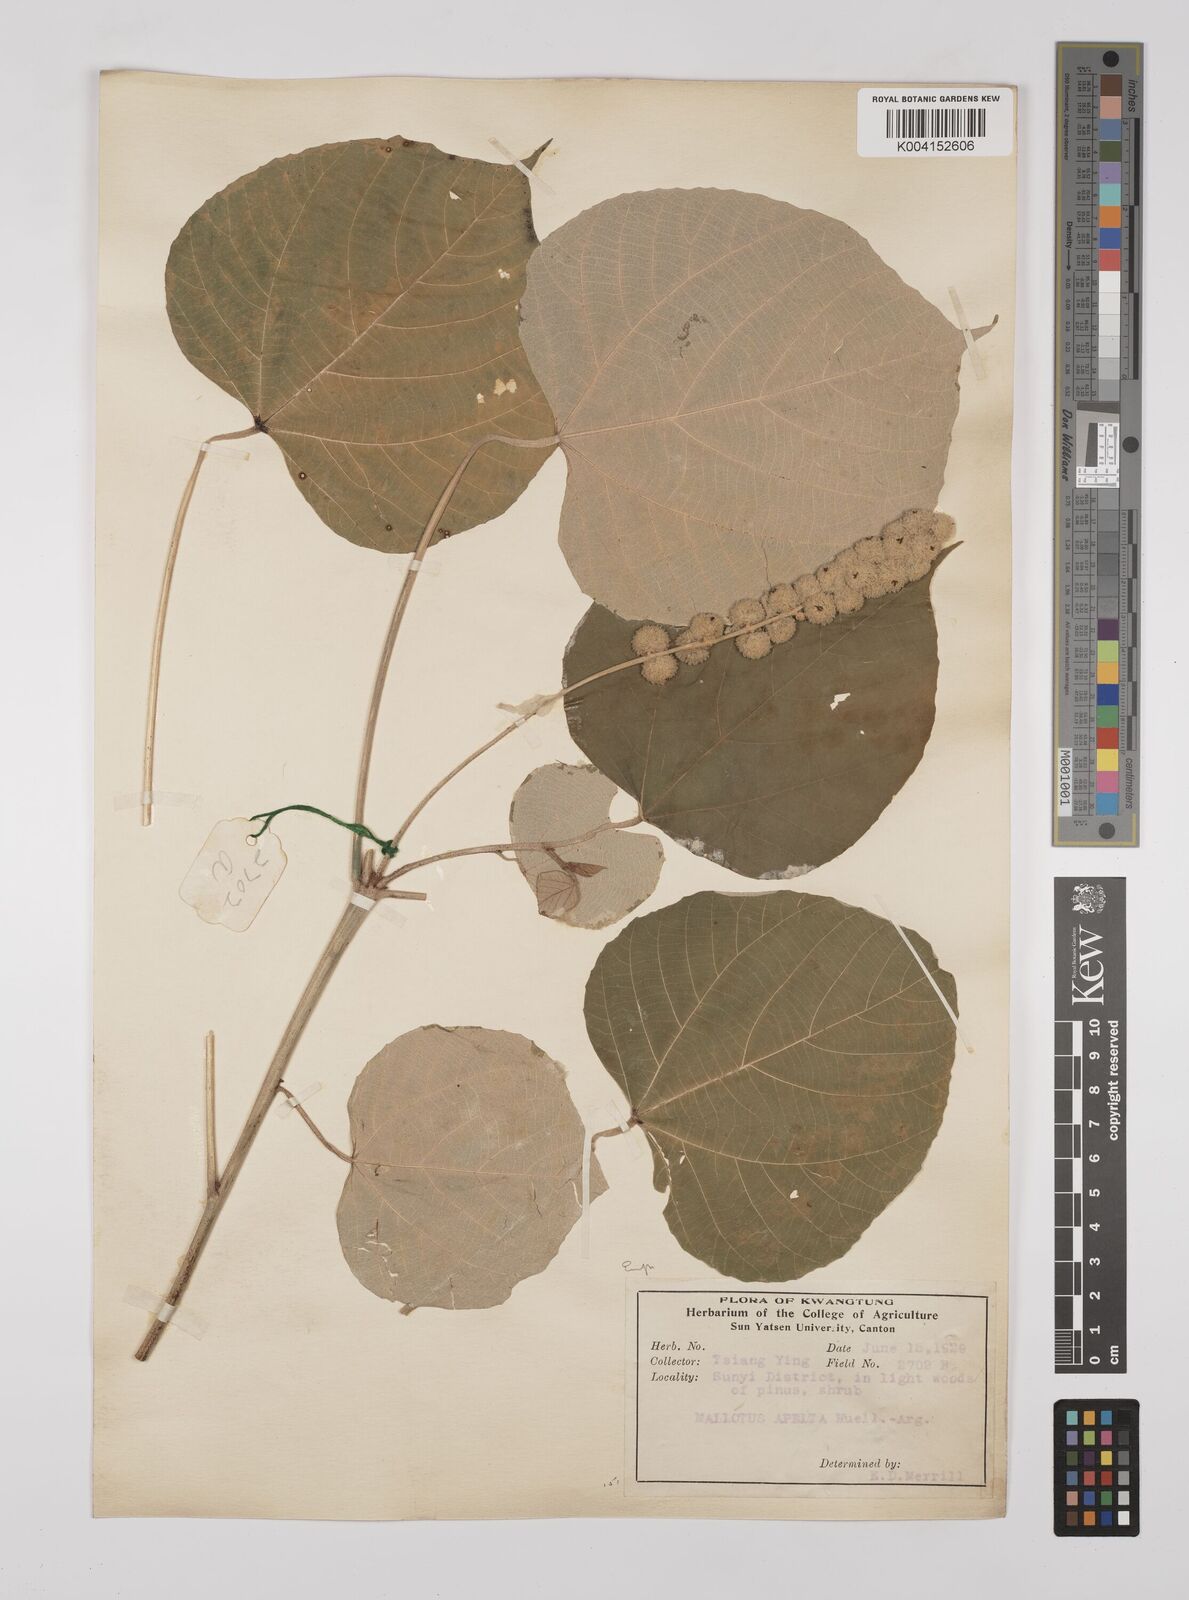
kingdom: Plantae
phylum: Tracheophyta
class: Magnoliopsida
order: Malpighiales
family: Euphorbiaceae
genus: Mallotus
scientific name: Mallotus apelta
